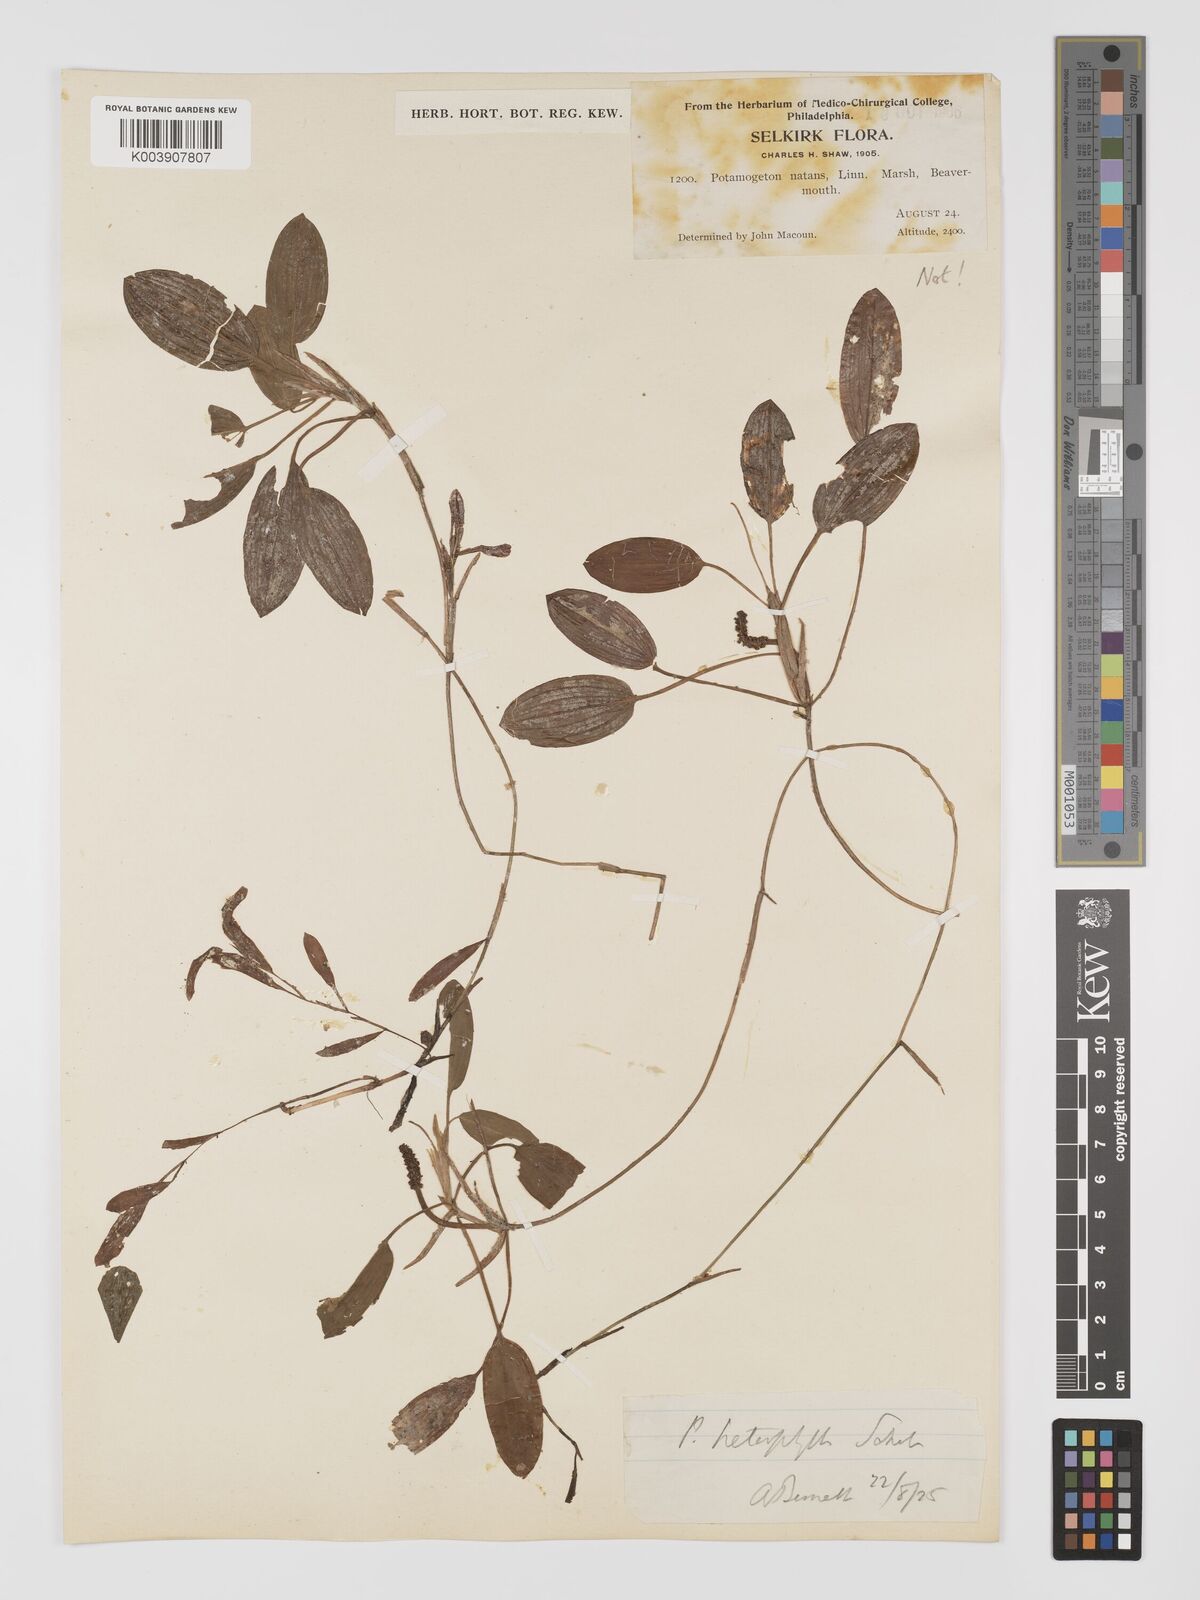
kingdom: Plantae
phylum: Tracheophyta
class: Liliopsida
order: Alismatales
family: Potamogetonaceae
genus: Potamogeton
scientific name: Potamogeton gramineus
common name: Various-leaved pondweed
